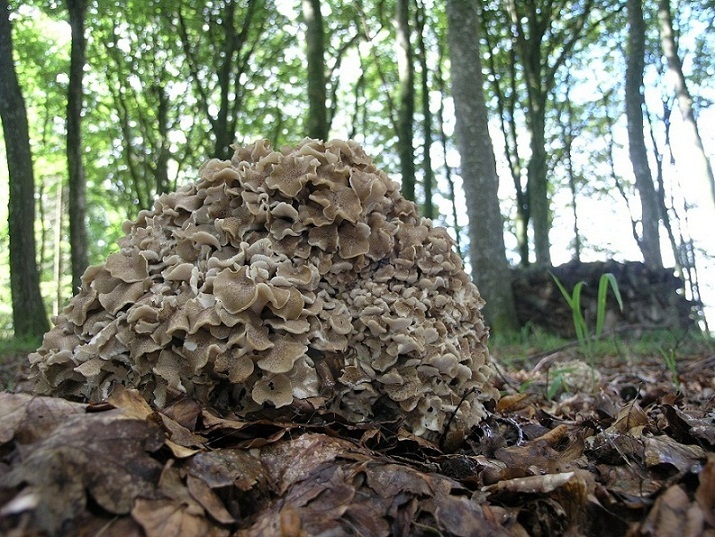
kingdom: Fungi
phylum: Basidiomycota
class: Agaricomycetes
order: Polyporales
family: Polyporaceae
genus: Polyporus
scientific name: Polyporus umbellatus
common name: skærmformet stilkporesvamp
